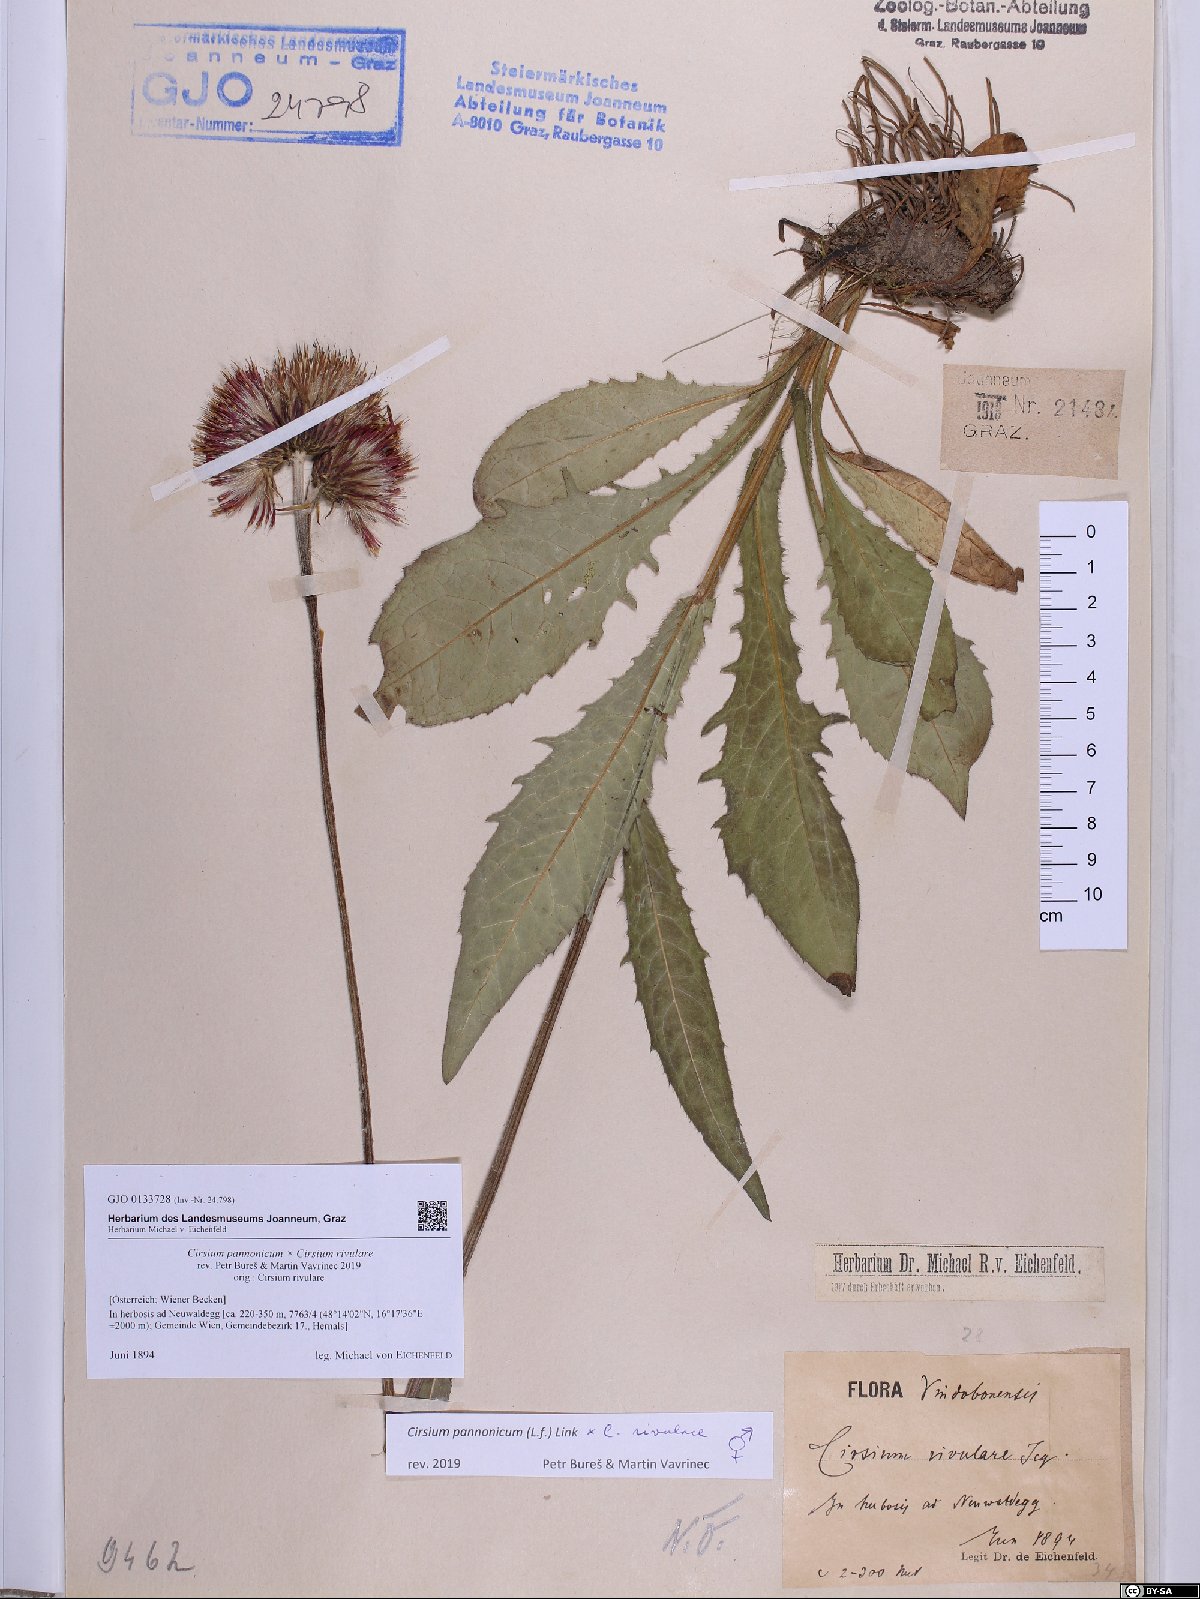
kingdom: Plantae
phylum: Tracheophyta
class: Magnoliopsida
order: Asterales
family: Asteraceae
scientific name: Asteraceae
